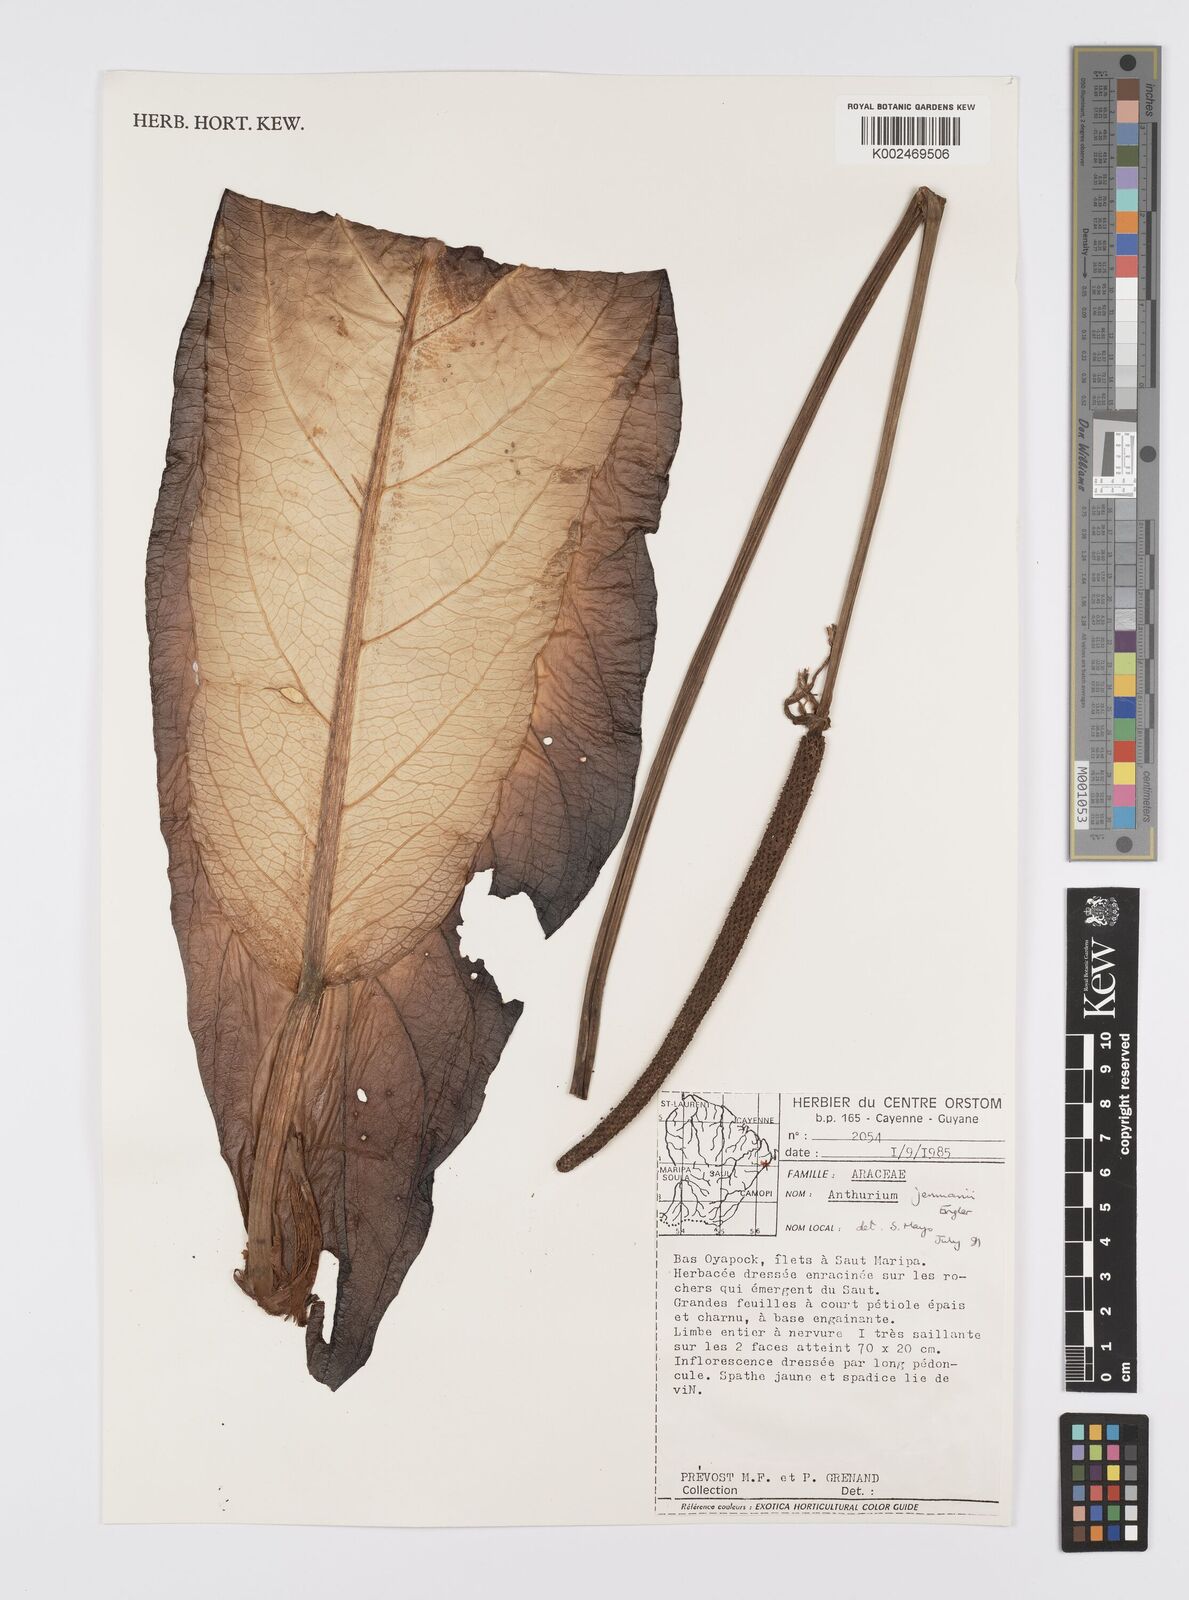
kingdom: Plantae
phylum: Tracheophyta
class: Liliopsida
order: Alismatales
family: Araceae
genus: Anthurium
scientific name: Anthurium jenmanii
